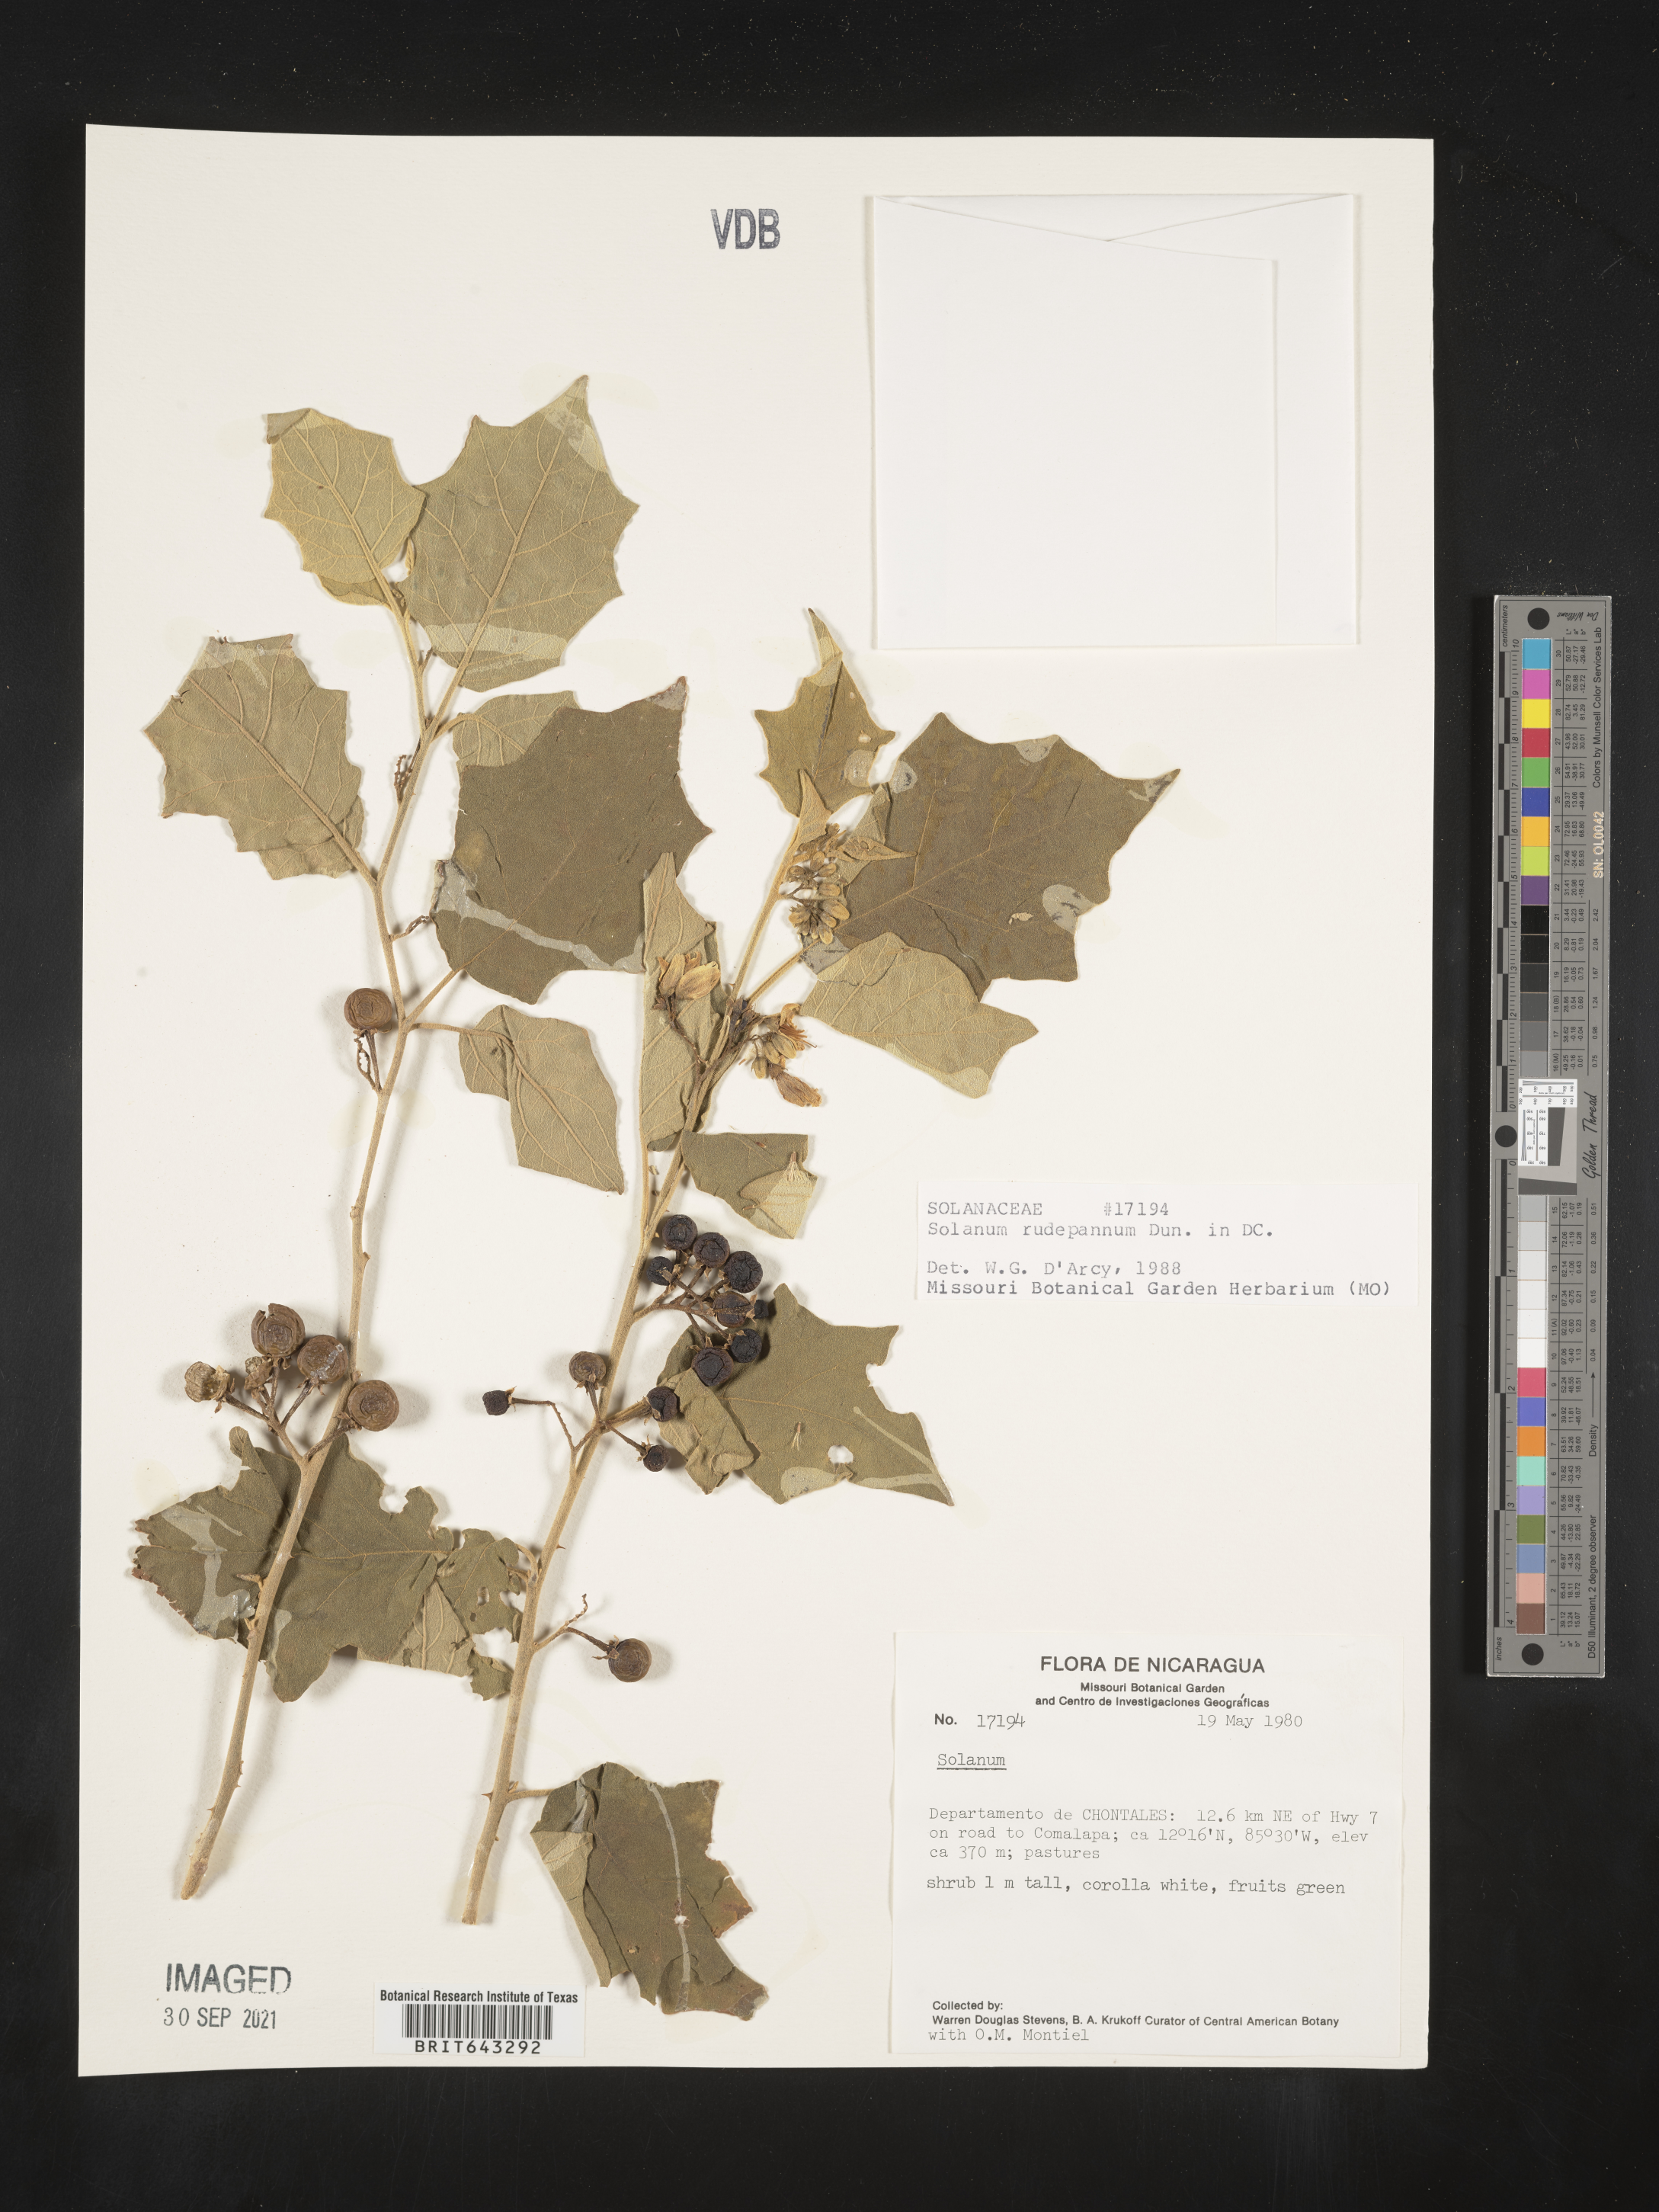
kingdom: Plantae
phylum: Tracheophyta
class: Magnoliopsida
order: Solanales
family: Solanaceae
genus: Solanum
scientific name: Solanum
